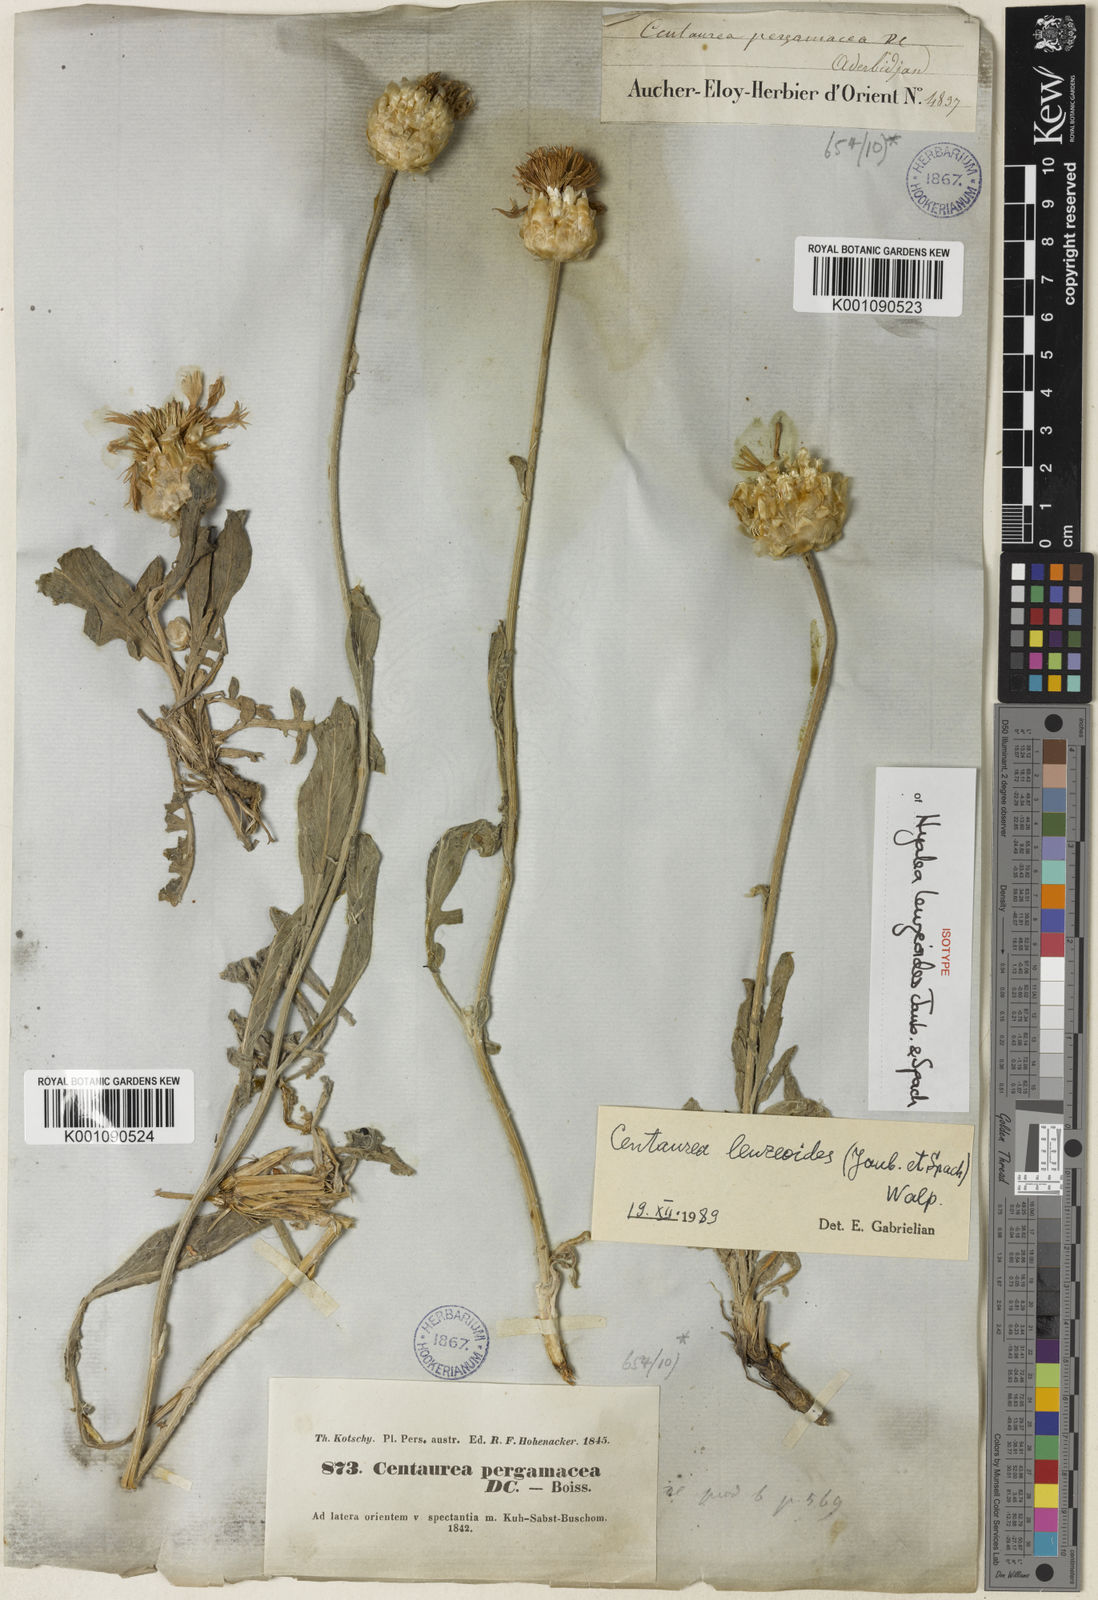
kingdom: Plantae
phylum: Tracheophyta
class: Magnoliopsida
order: Asterales
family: Asteraceae
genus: Psephellus
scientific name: Psephellus leuzeoides
